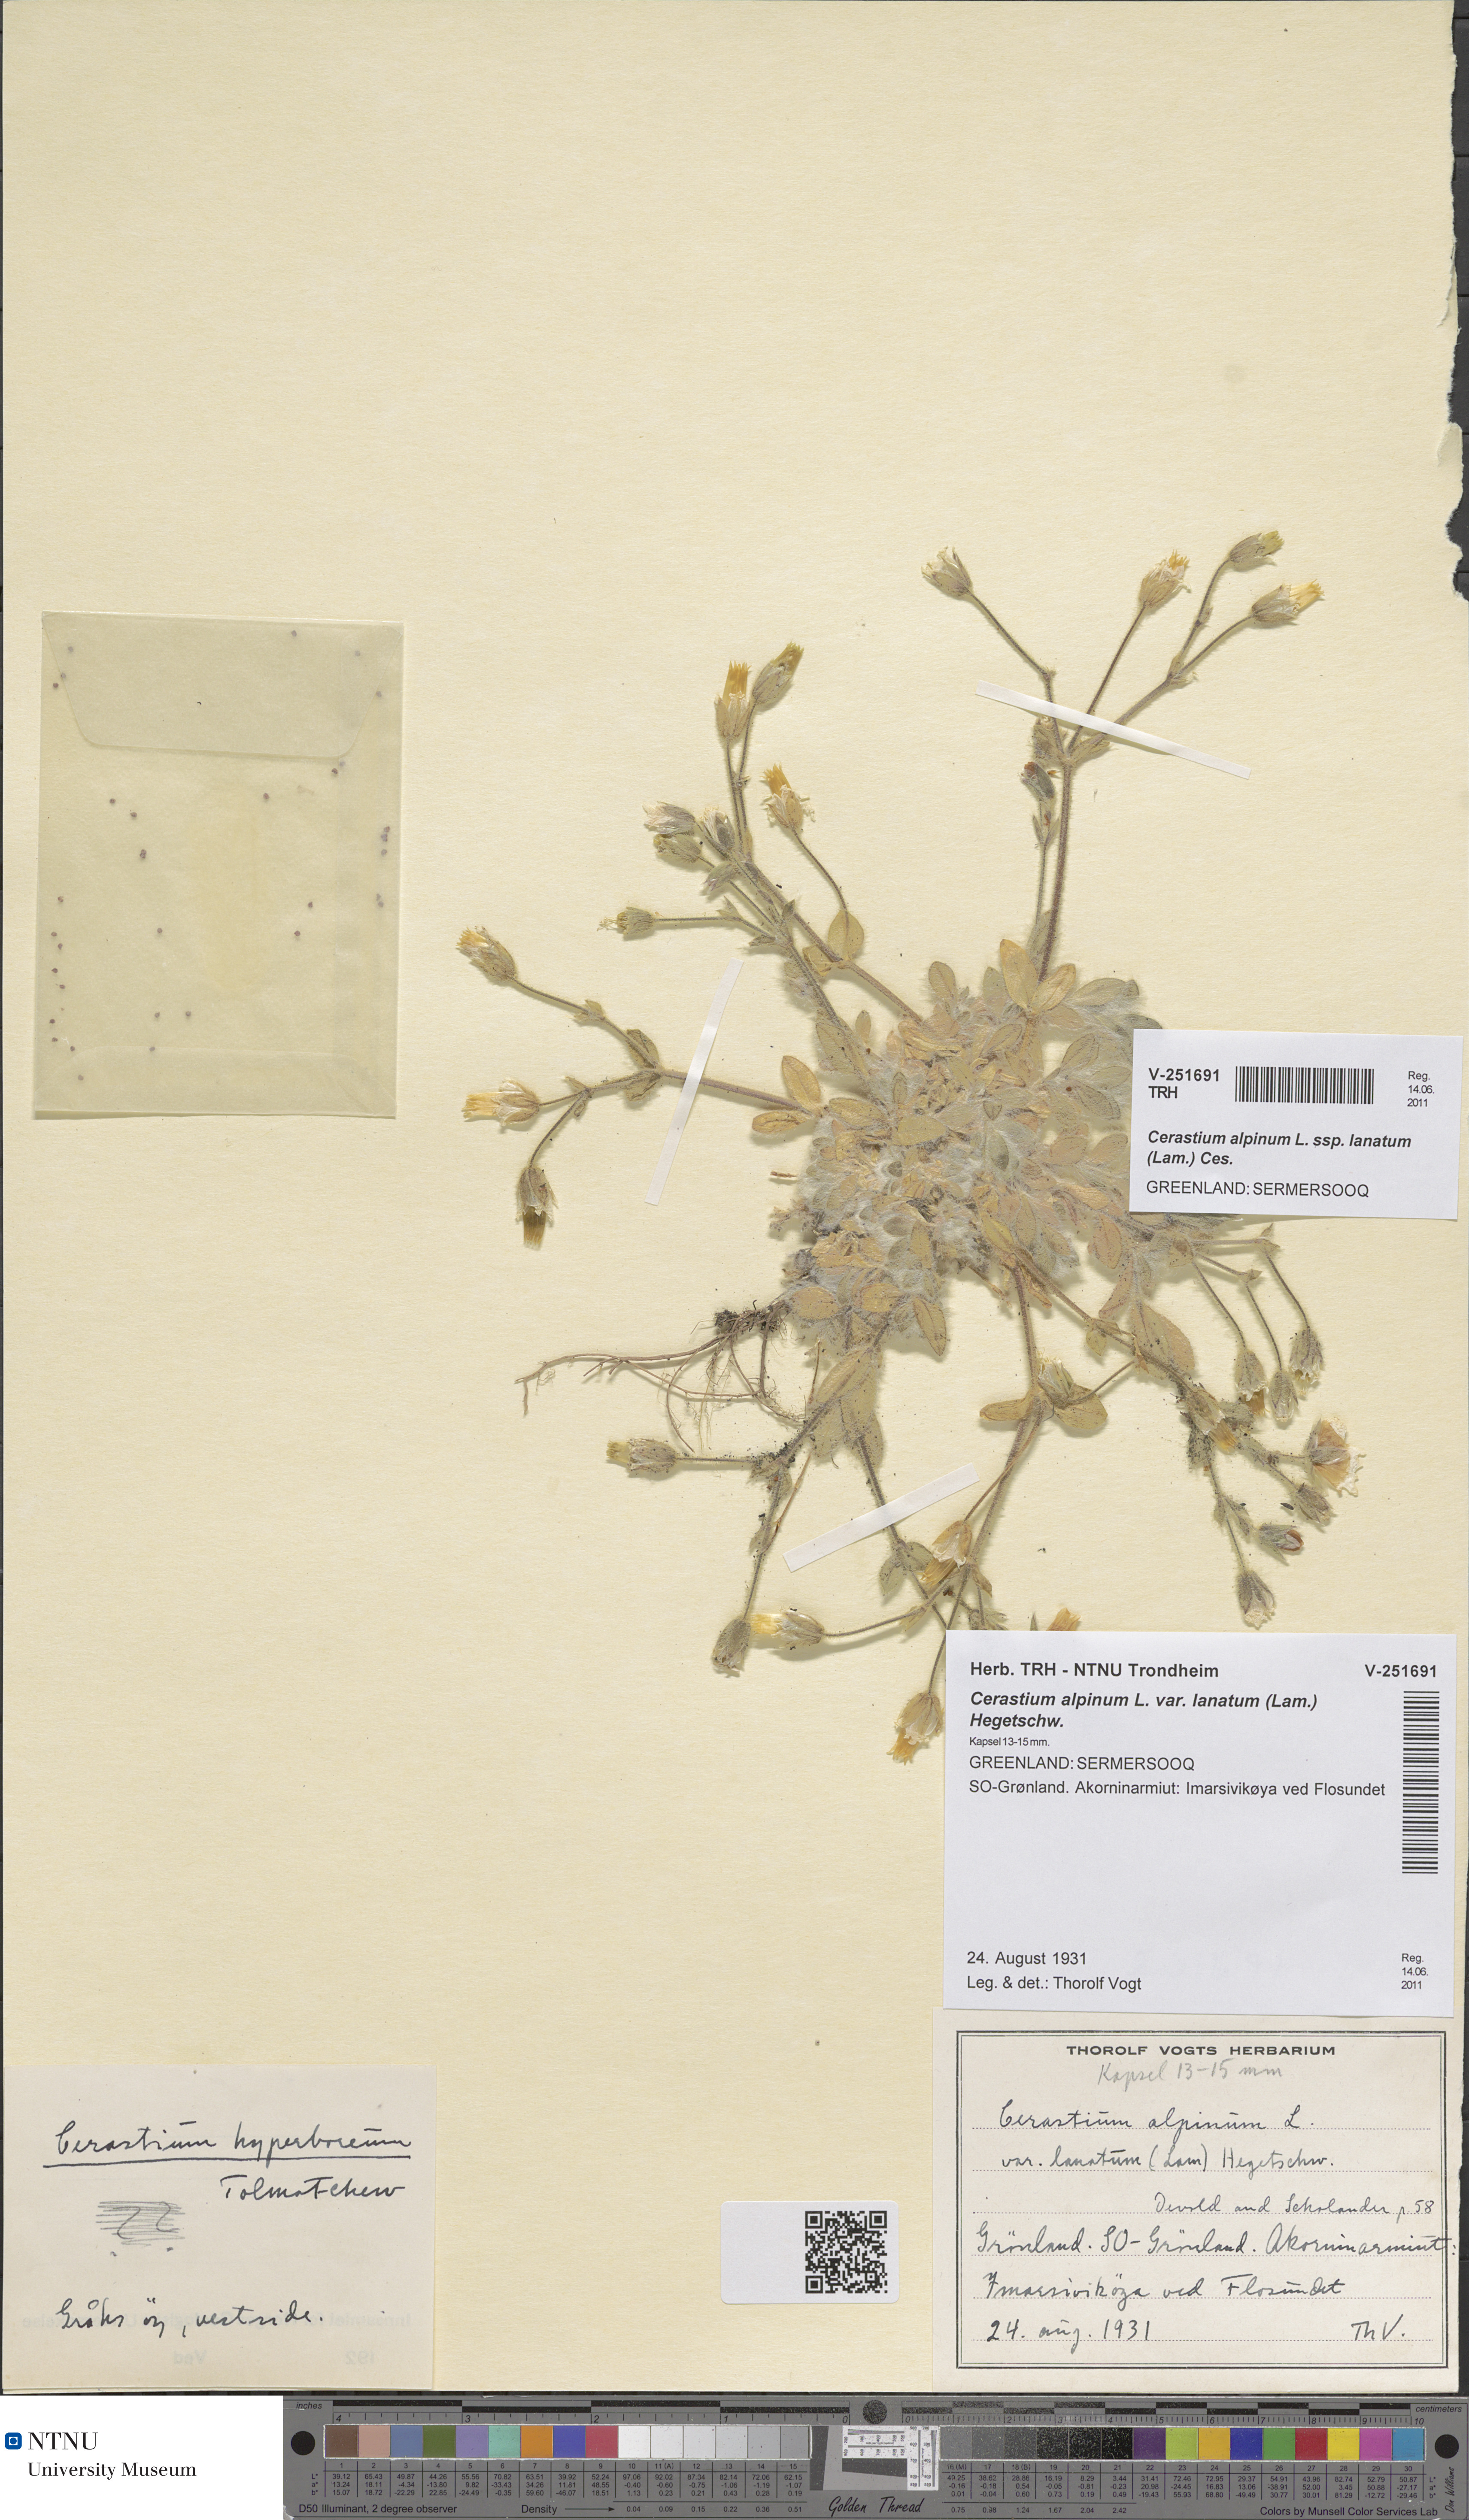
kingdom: Plantae
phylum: Tracheophyta
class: Magnoliopsida
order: Caryophyllales
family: Caryophyllaceae
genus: Cerastium
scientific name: Cerastium alpinum
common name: Alpine mouse-ear
